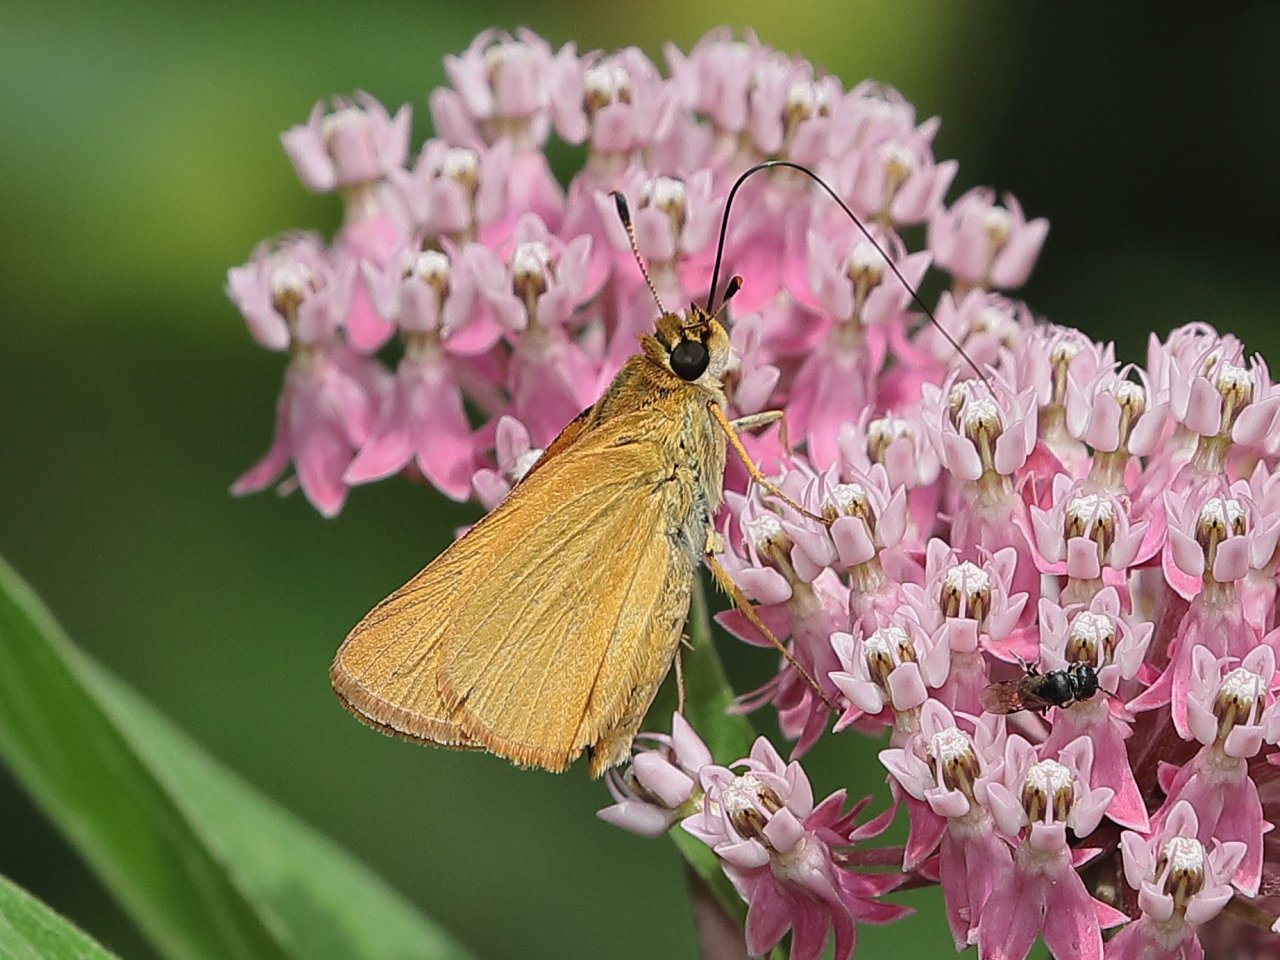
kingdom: Animalia
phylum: Arthropoda
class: Insecta
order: Lepidoptera
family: Hesperiidae
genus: Atrytone
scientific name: Atrytone delaware
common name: Delaware Skipper
